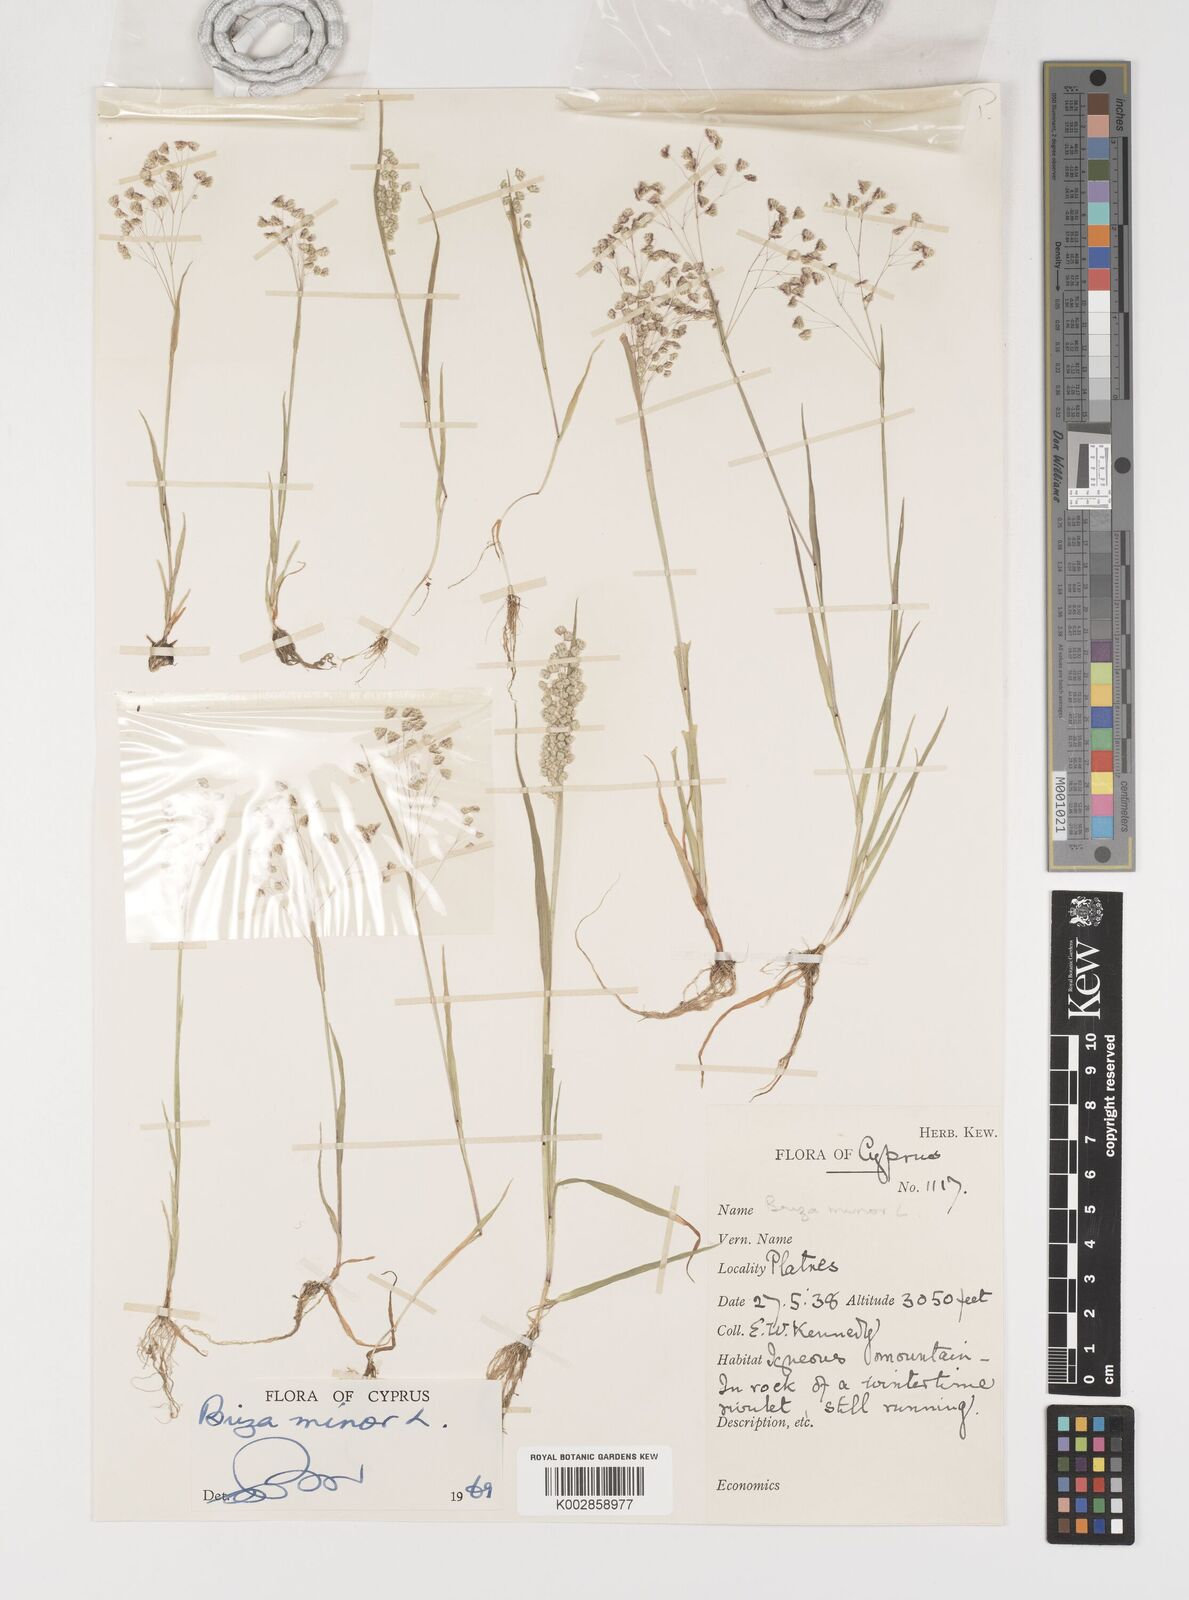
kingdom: Plantae
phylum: Tracheophyta
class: Liliopsida
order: Poales
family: Poaceae
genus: Briza
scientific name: Briza minor
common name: Lesser quaking-grass
